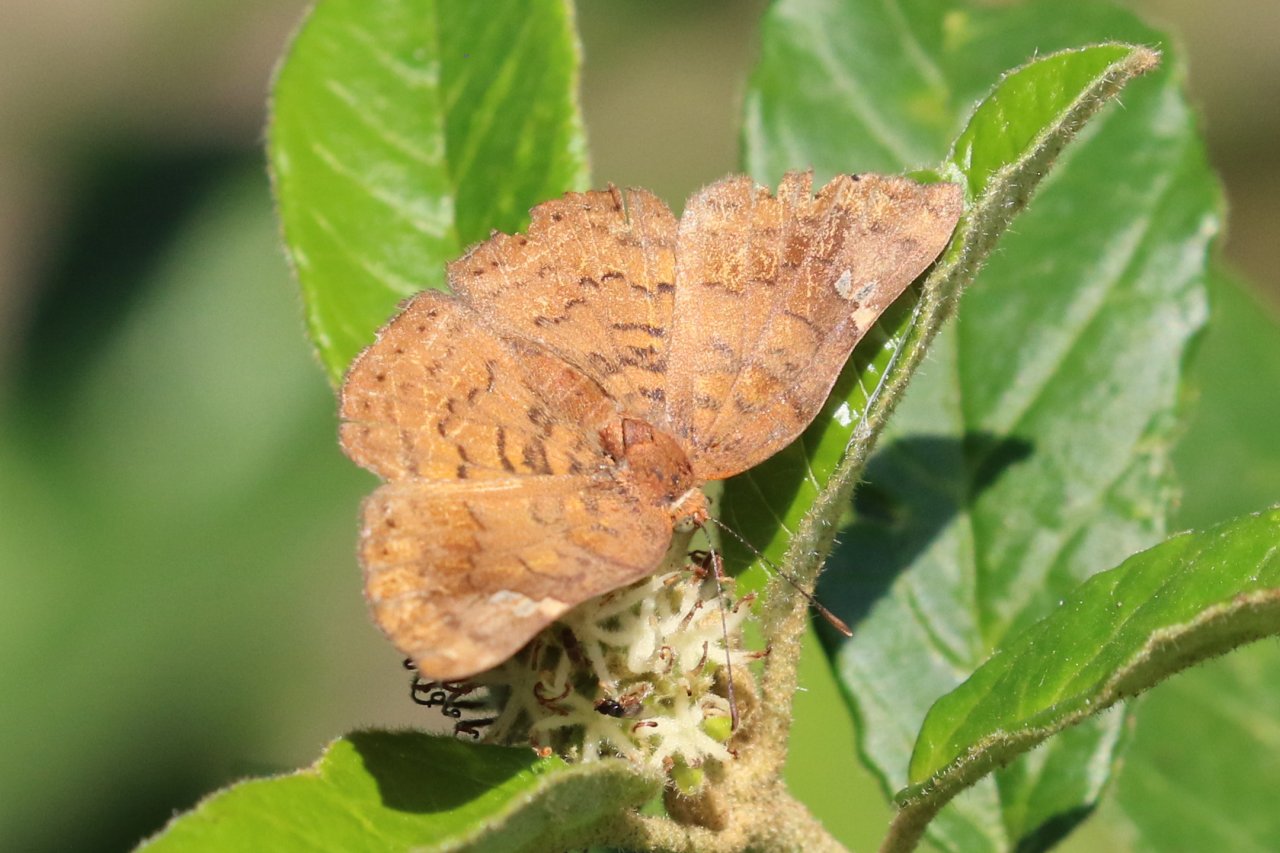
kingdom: Animalia
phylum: Arthropoda
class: Insecta
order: Lepidoptera
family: Lycaenidae
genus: Emesis
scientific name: Emesis emesia
